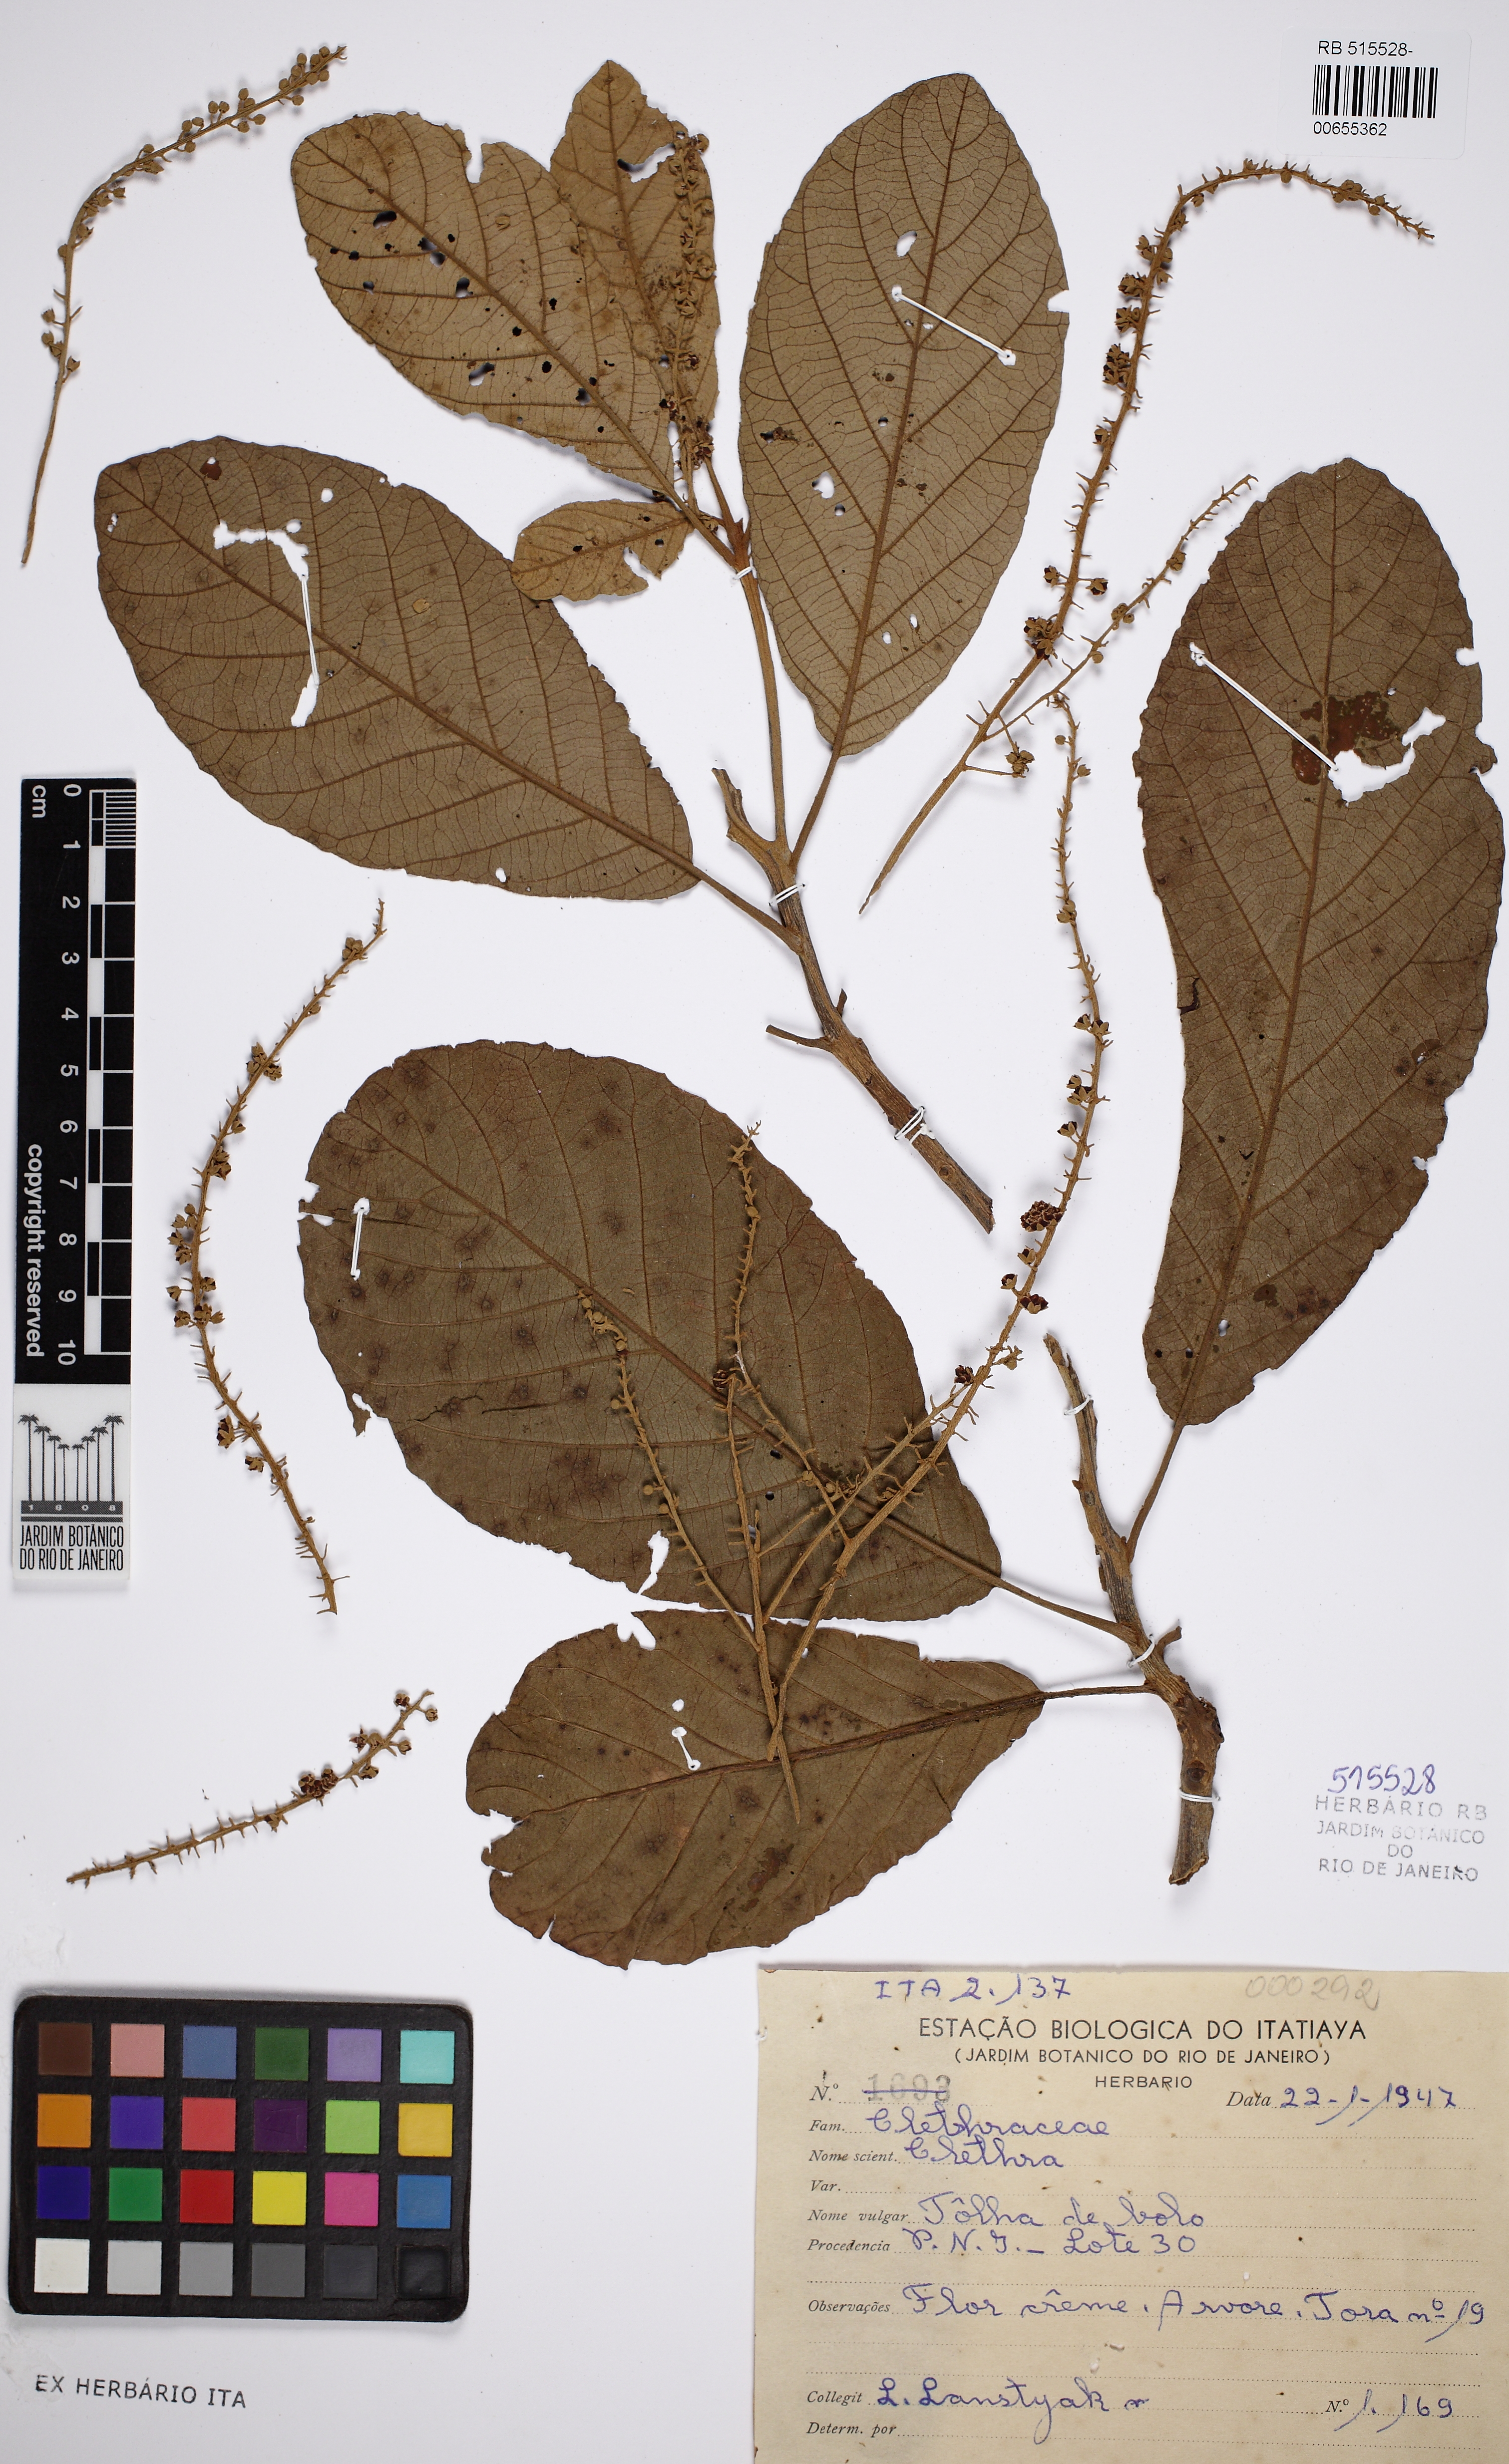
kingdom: Plantae
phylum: Tracheophyta
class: Magnoliopsida
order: Ericales
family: Clethraceae
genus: Clethra
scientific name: Clethra
